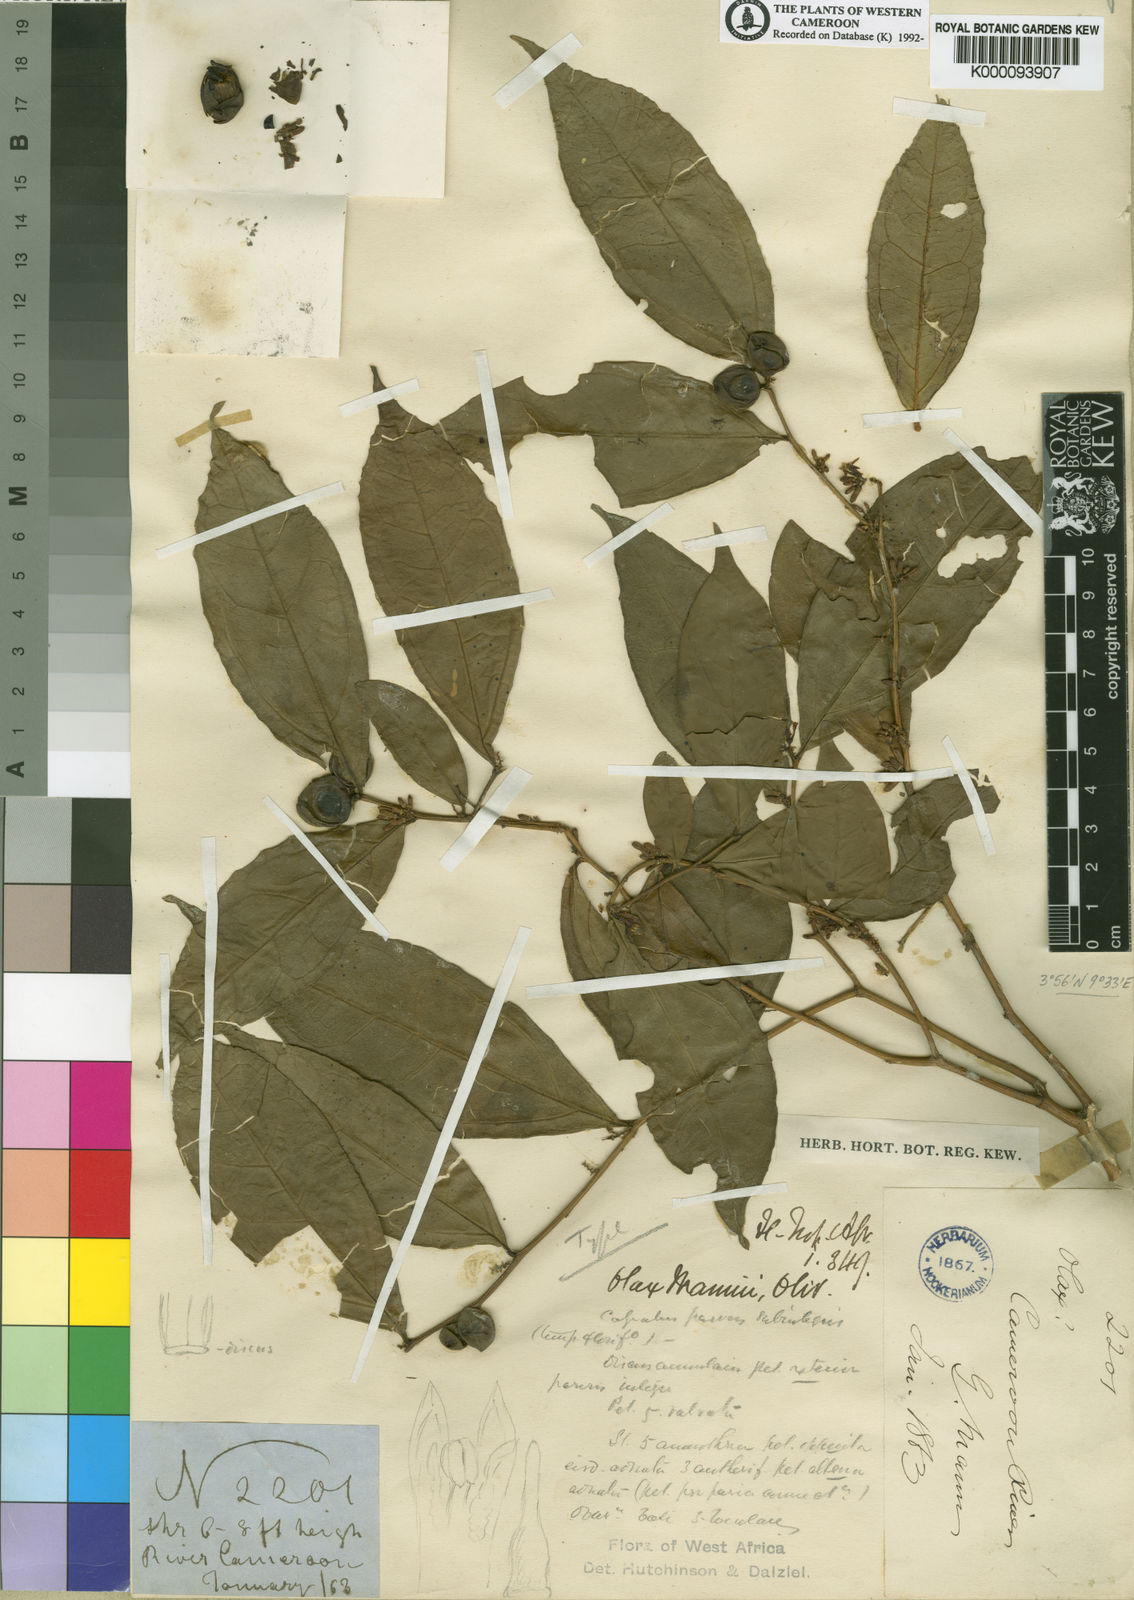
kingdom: Plantae
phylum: Tracheophyta
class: Magnoliopsida
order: Santalales
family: Olacaceae
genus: Olax
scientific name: Olax mannii
